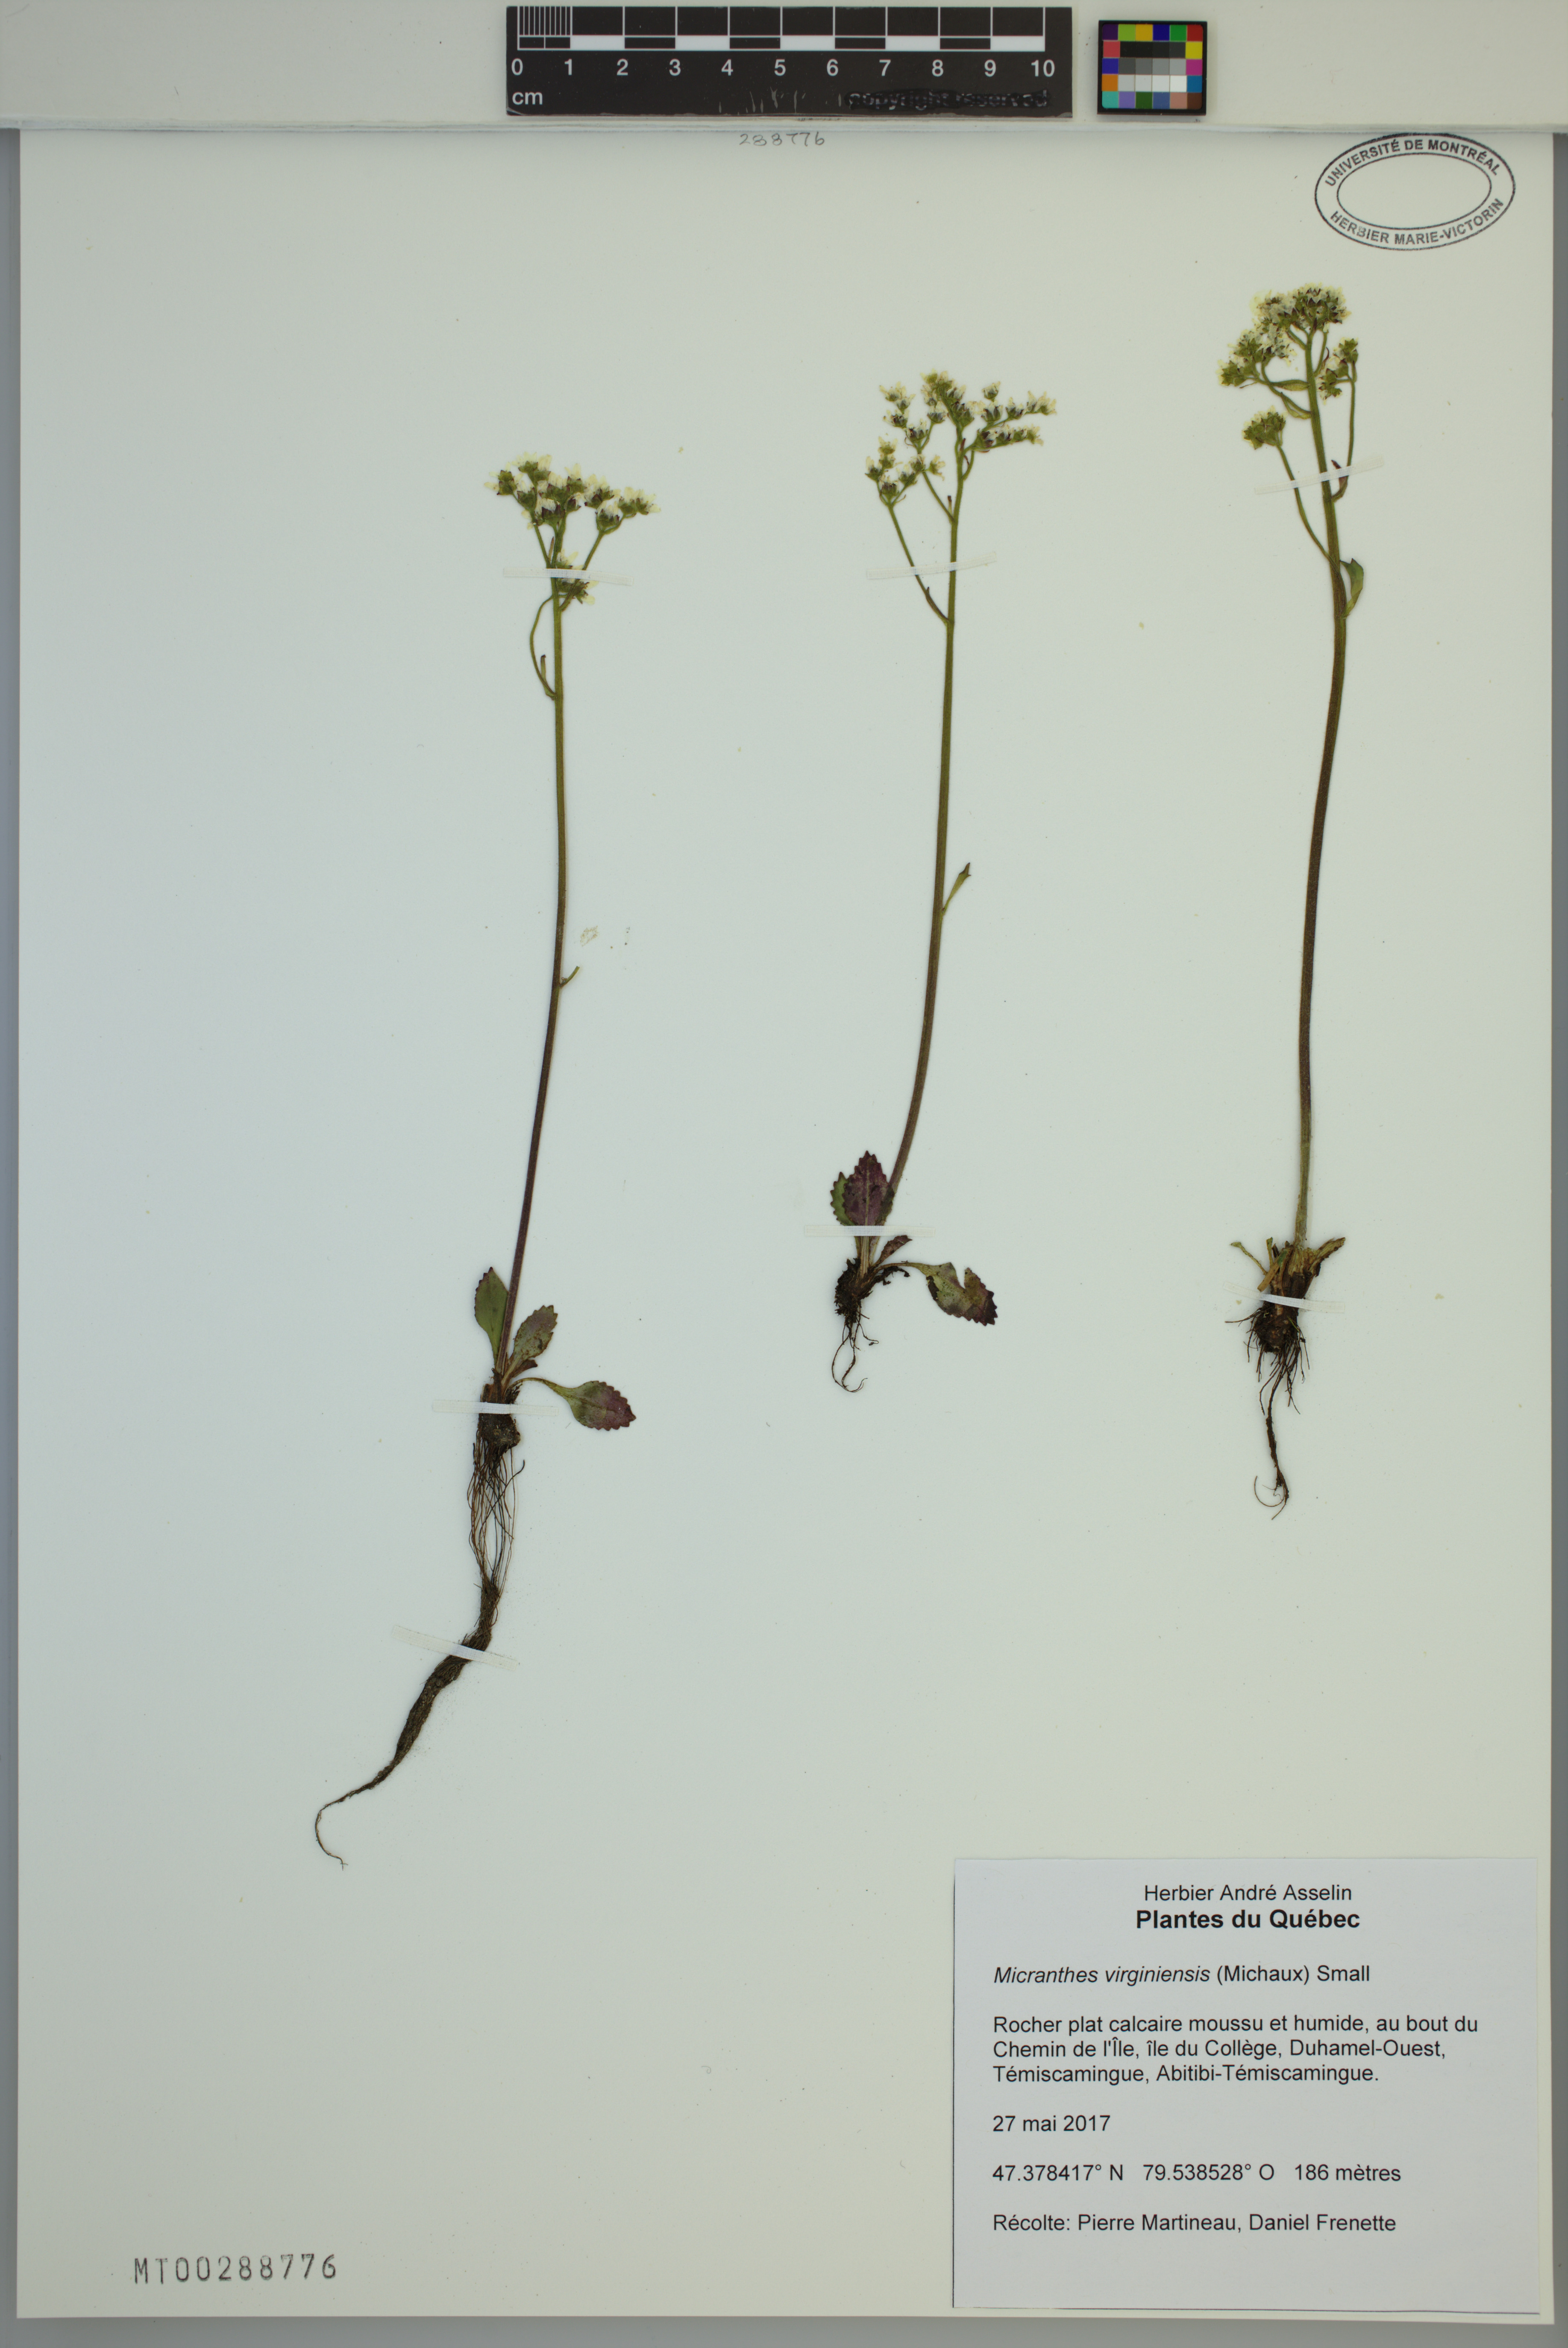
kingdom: Plantae
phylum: Tracheophyta
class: Magnoliopsida
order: Saxifragales
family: Saxifragaceae
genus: Micranthes
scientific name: Micranthes virginiensis
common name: Early saxifrage
